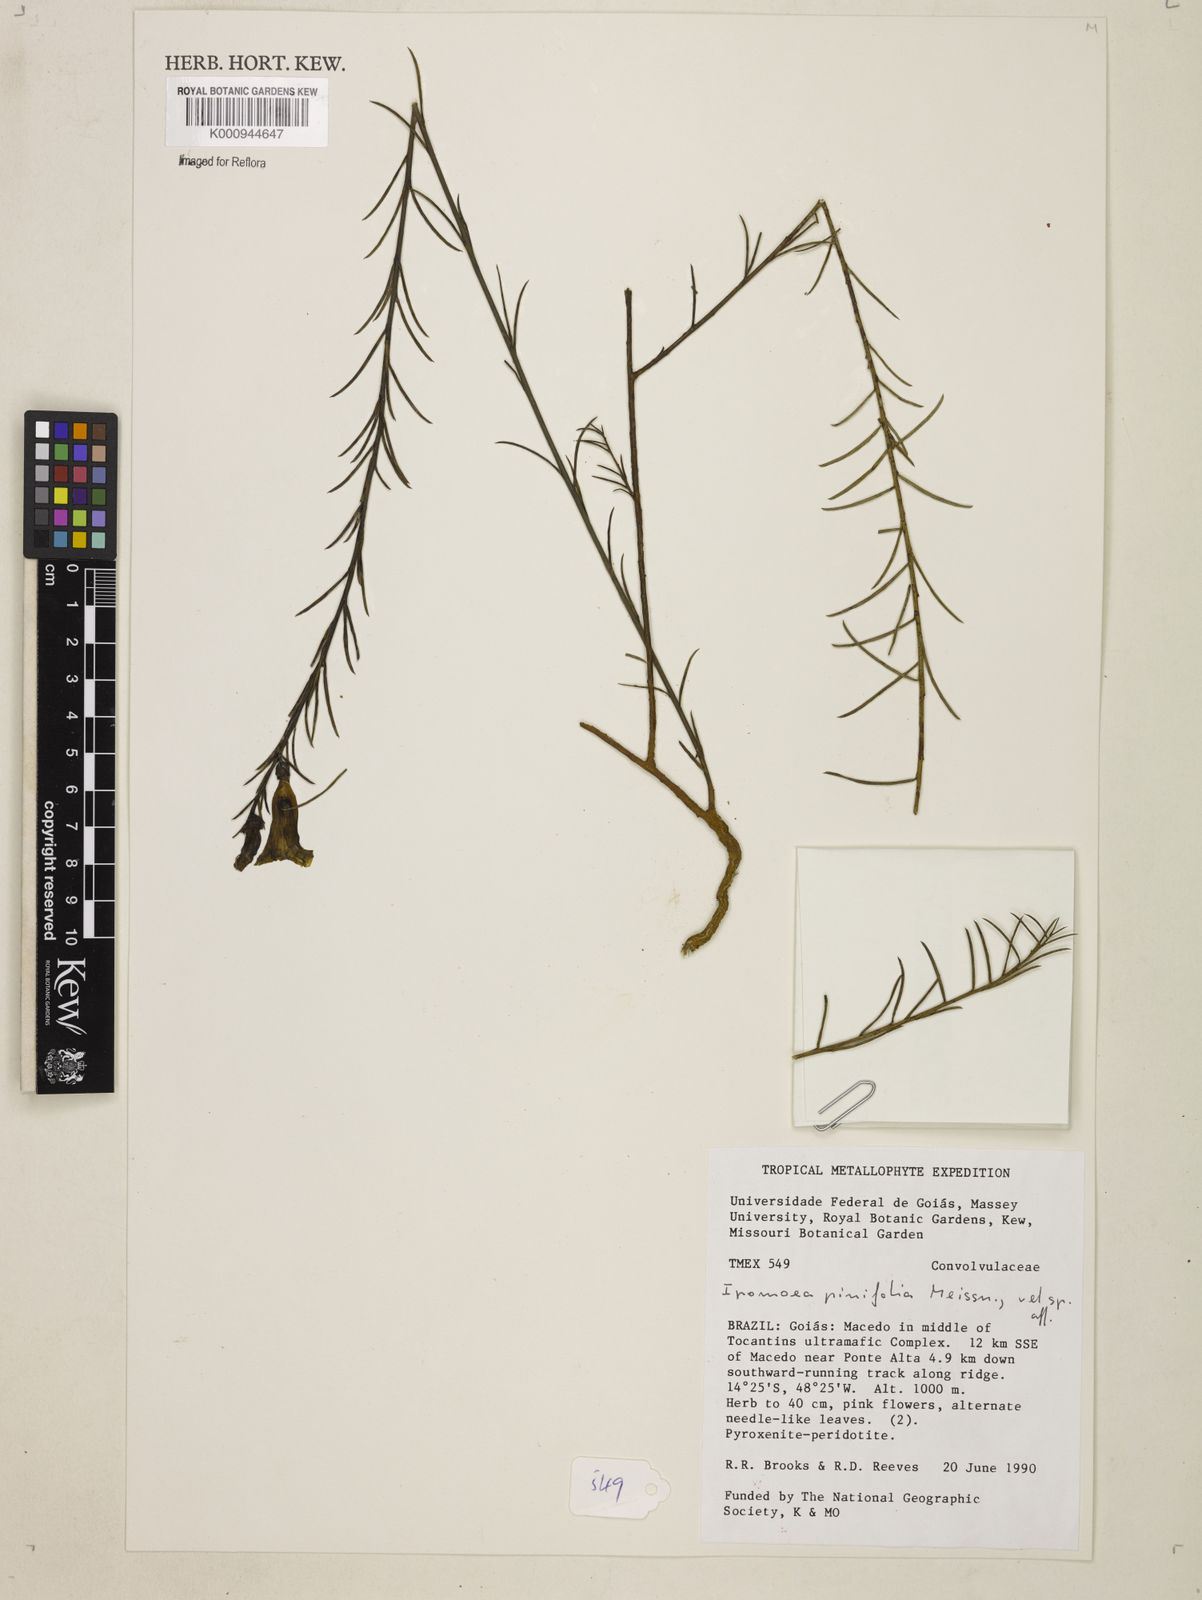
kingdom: Plantae
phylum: Tracheophyta
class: Magnoliopsida
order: Solanales
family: Convolvulaceae
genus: Ipomoea
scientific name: Ipomoea pinifolia
